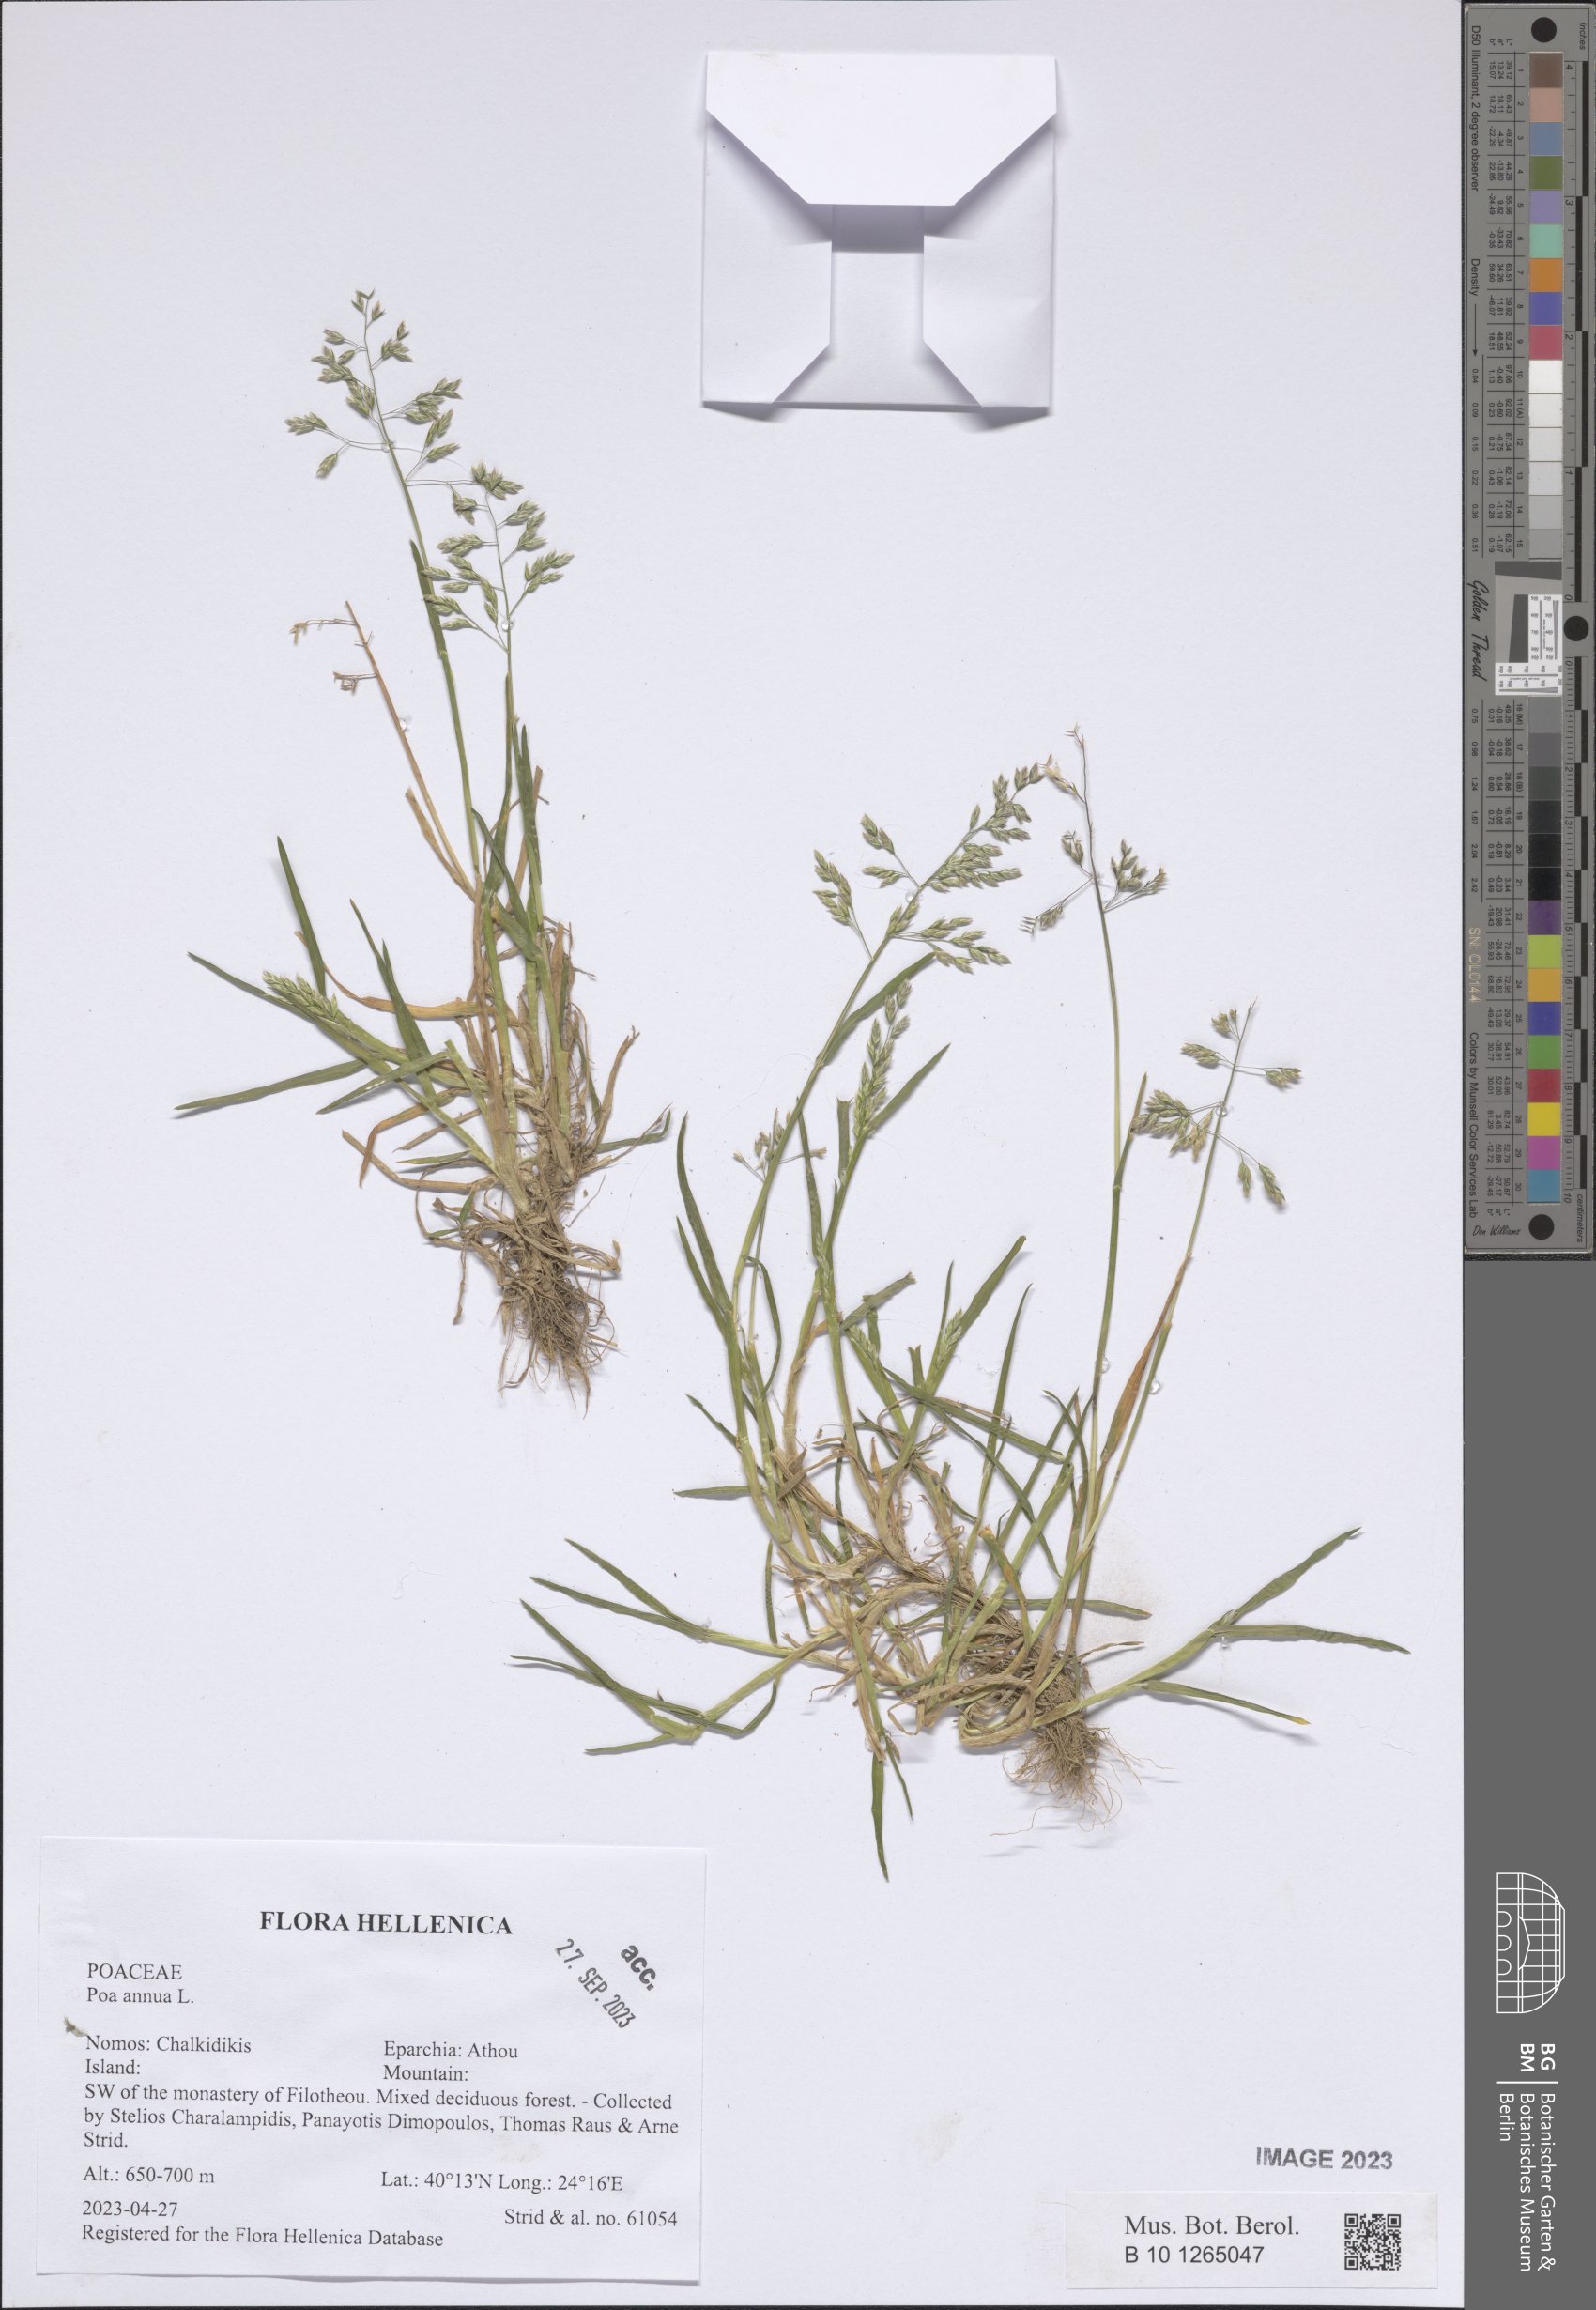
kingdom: Plantae
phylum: Tracheophyta
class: Liliopsida
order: Poales
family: Poaceae
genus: Poa
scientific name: Poa annua
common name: Annual bluegrass
